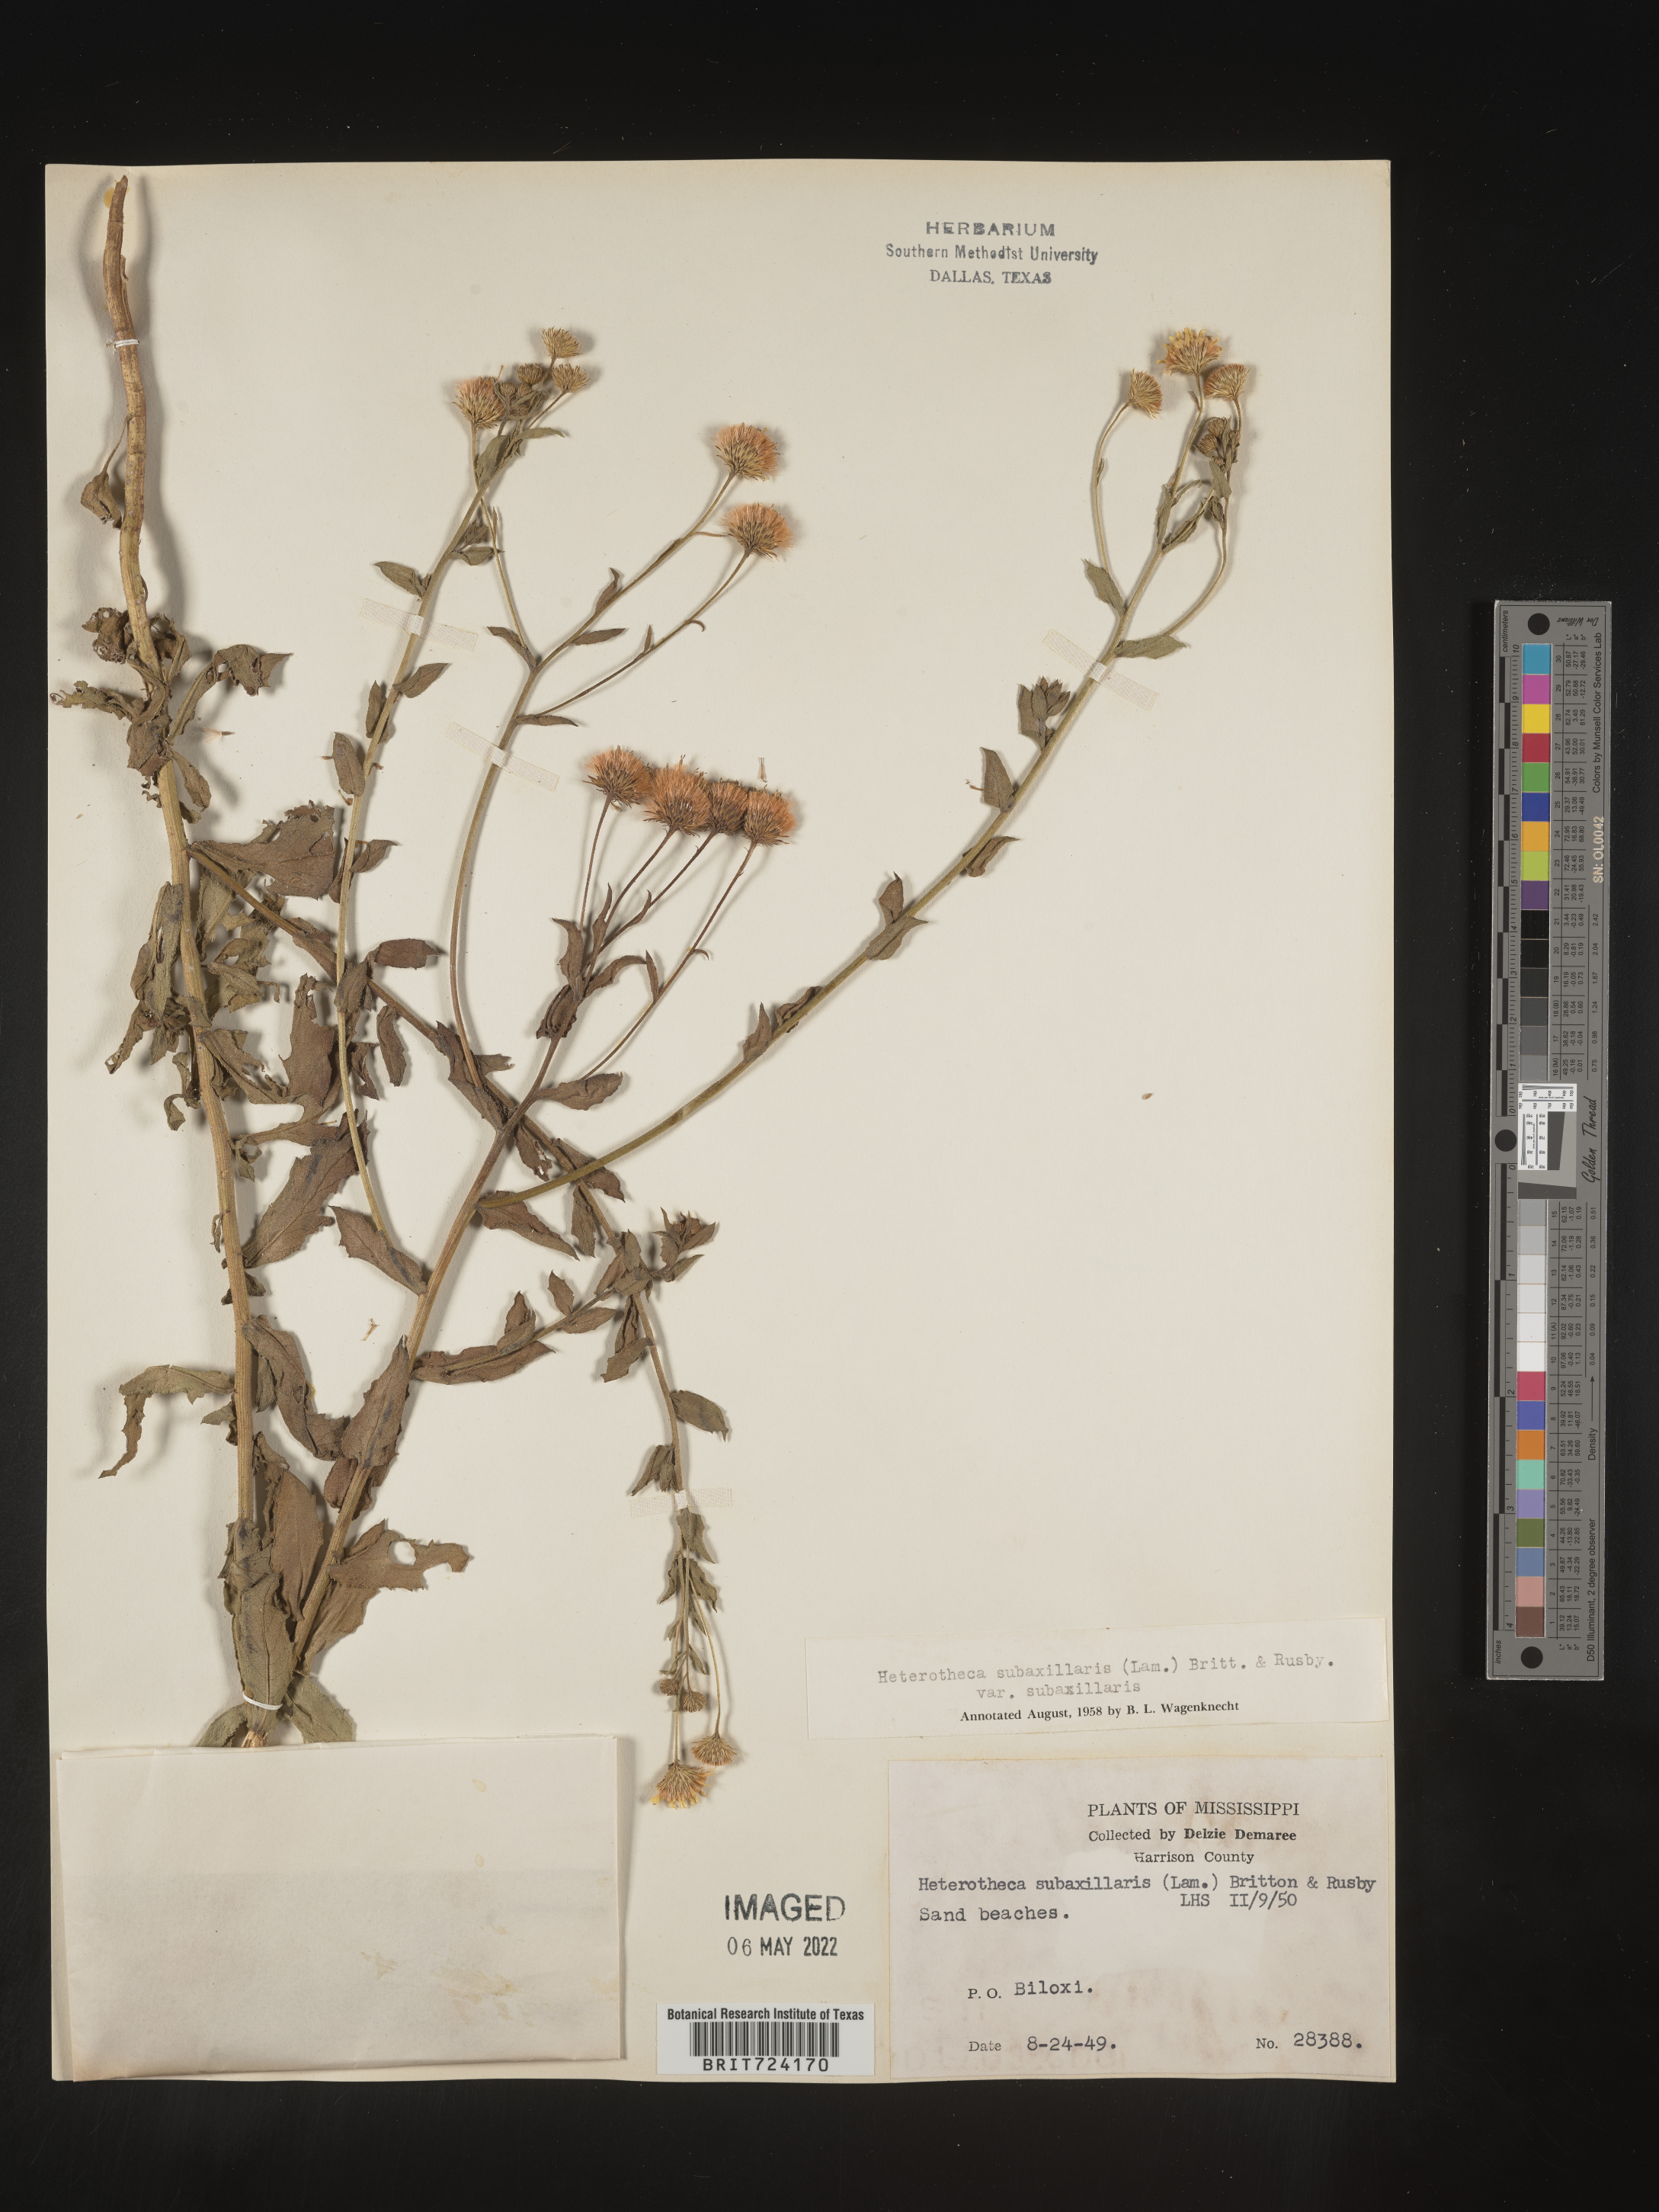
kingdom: Plantae
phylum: Tracheophyta
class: Magnoliopsida
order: Asterales
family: Asteraceae
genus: Heterotheca
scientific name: Heterotheca subaxillaris
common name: Camphorweed
